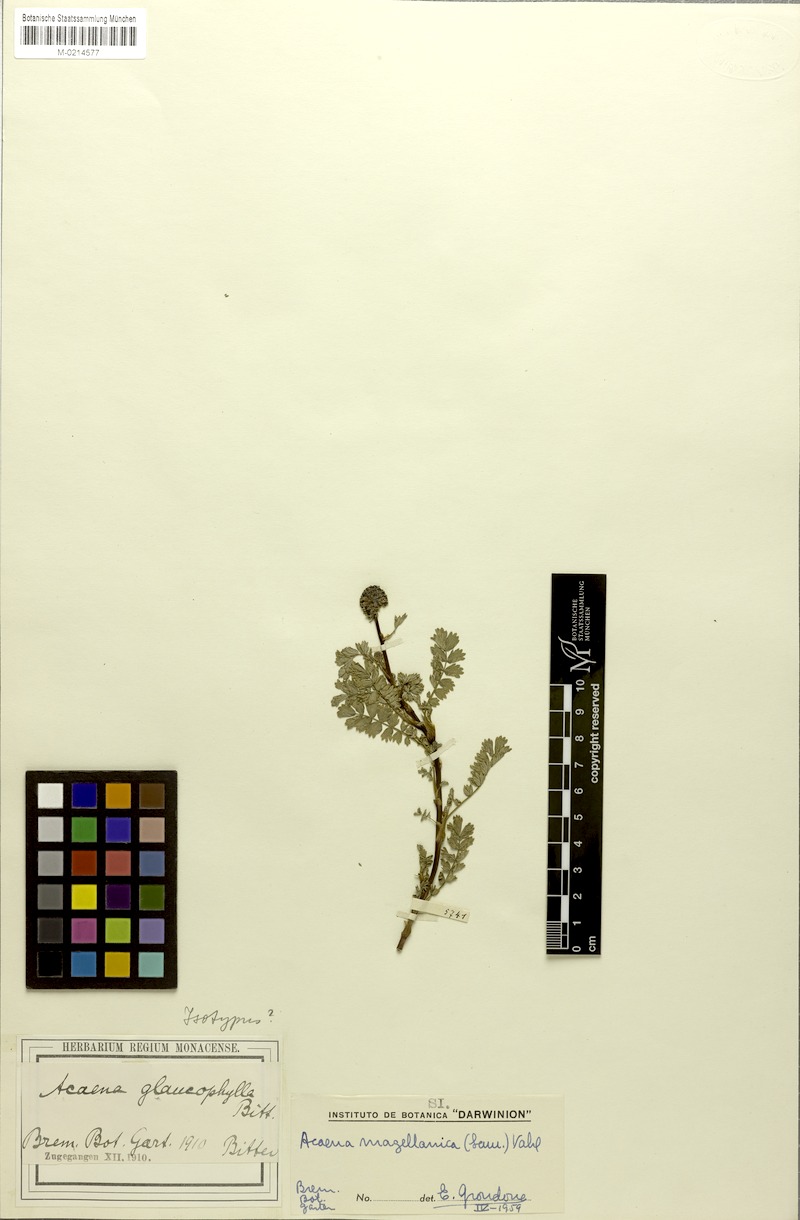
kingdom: Plantae
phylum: Tracheophyta
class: Magnoliopsida
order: Rosales
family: Rosaceae
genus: Acaena
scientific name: Acaena magellanica
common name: New zealand burr
